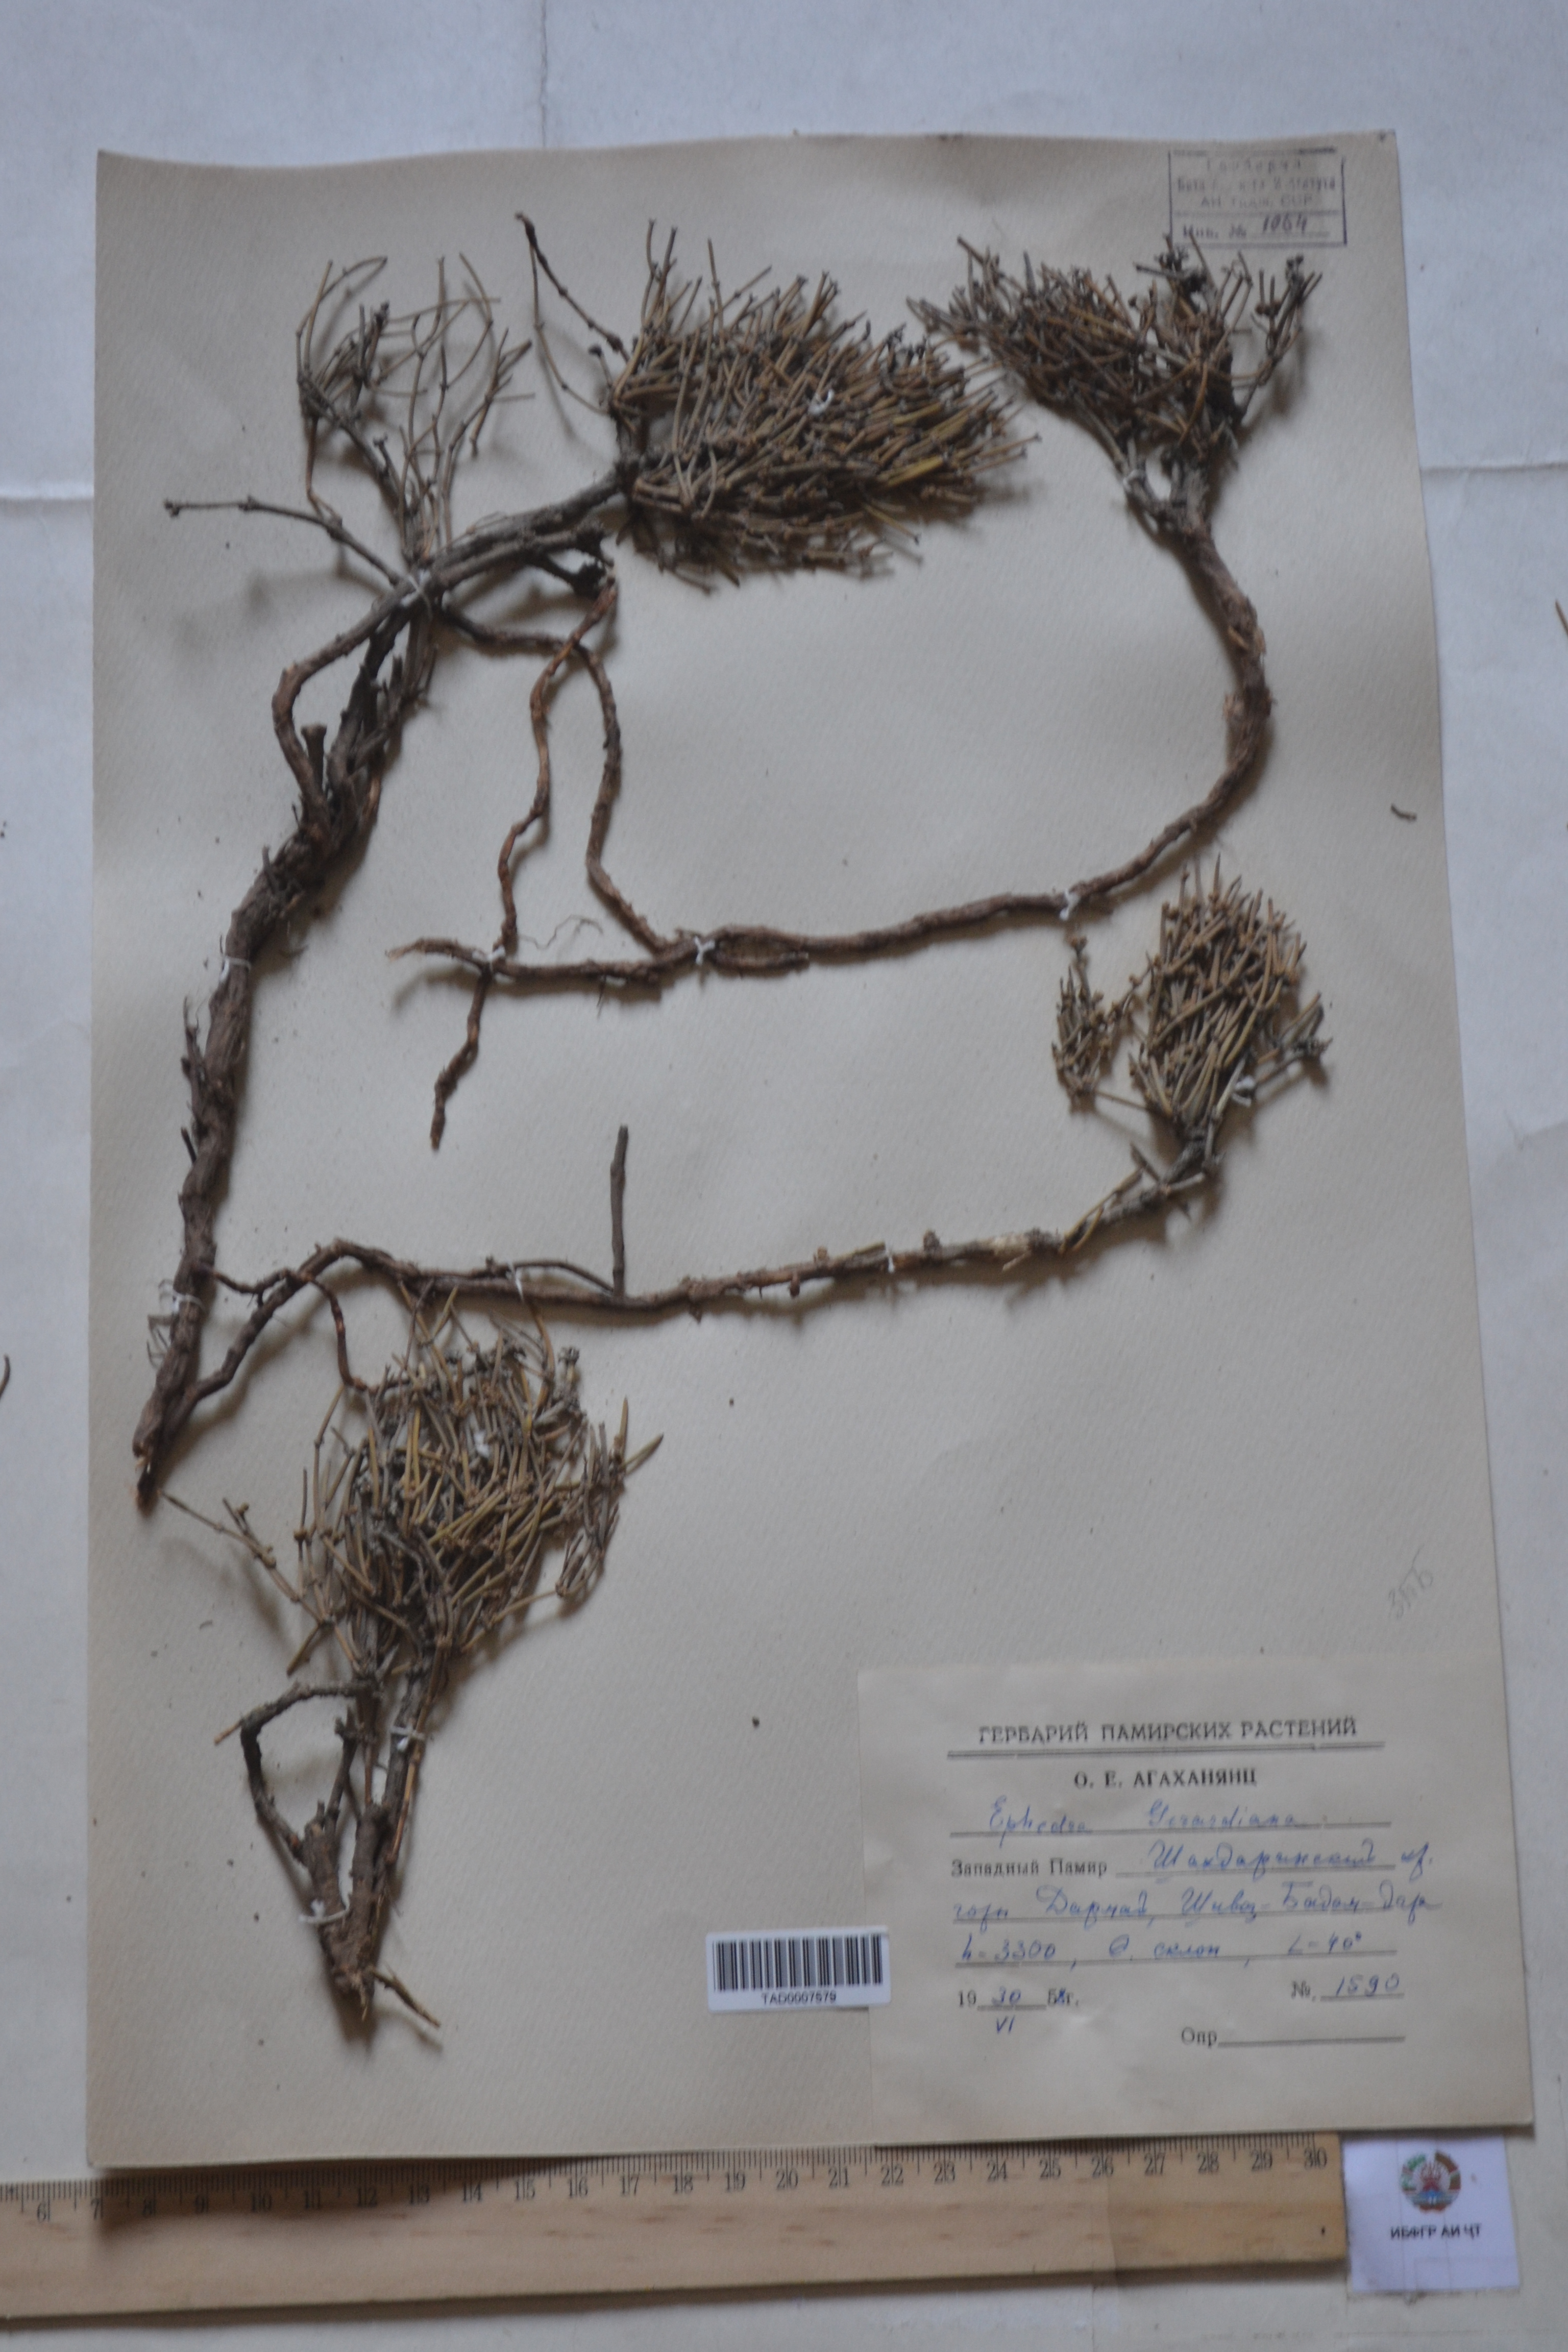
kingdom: Plantae
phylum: Tracheophyta
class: Gnetopsida
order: Ephedrales
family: Ephedraceae
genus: Ephedra
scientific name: Ephedra gerardiana
